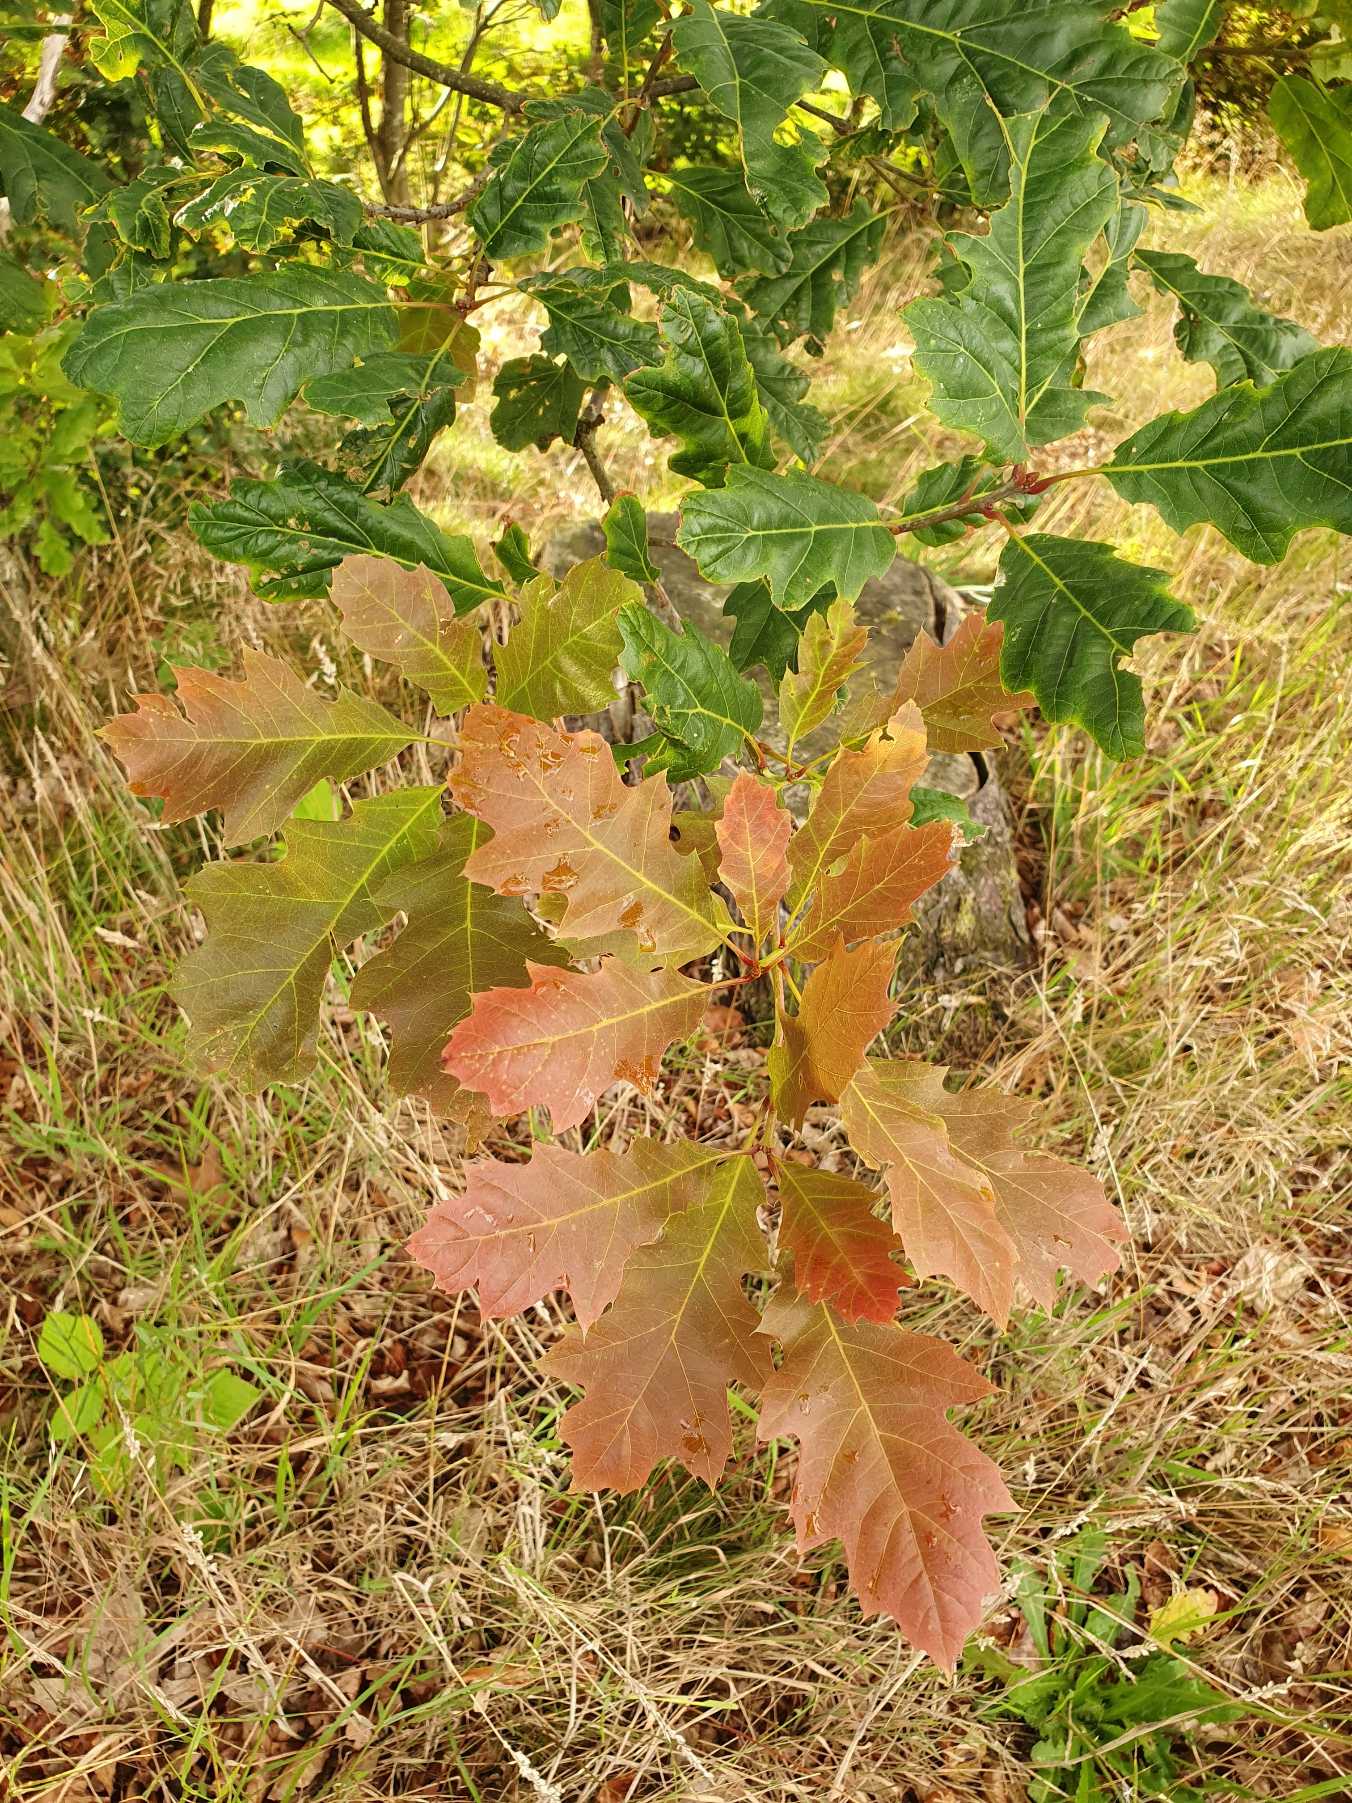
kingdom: Plantae
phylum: Tracheophyta
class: Magnoliopsida
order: Fagales
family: Fagaceae
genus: Quercus
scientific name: Quercus rubra
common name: Rød-eg
